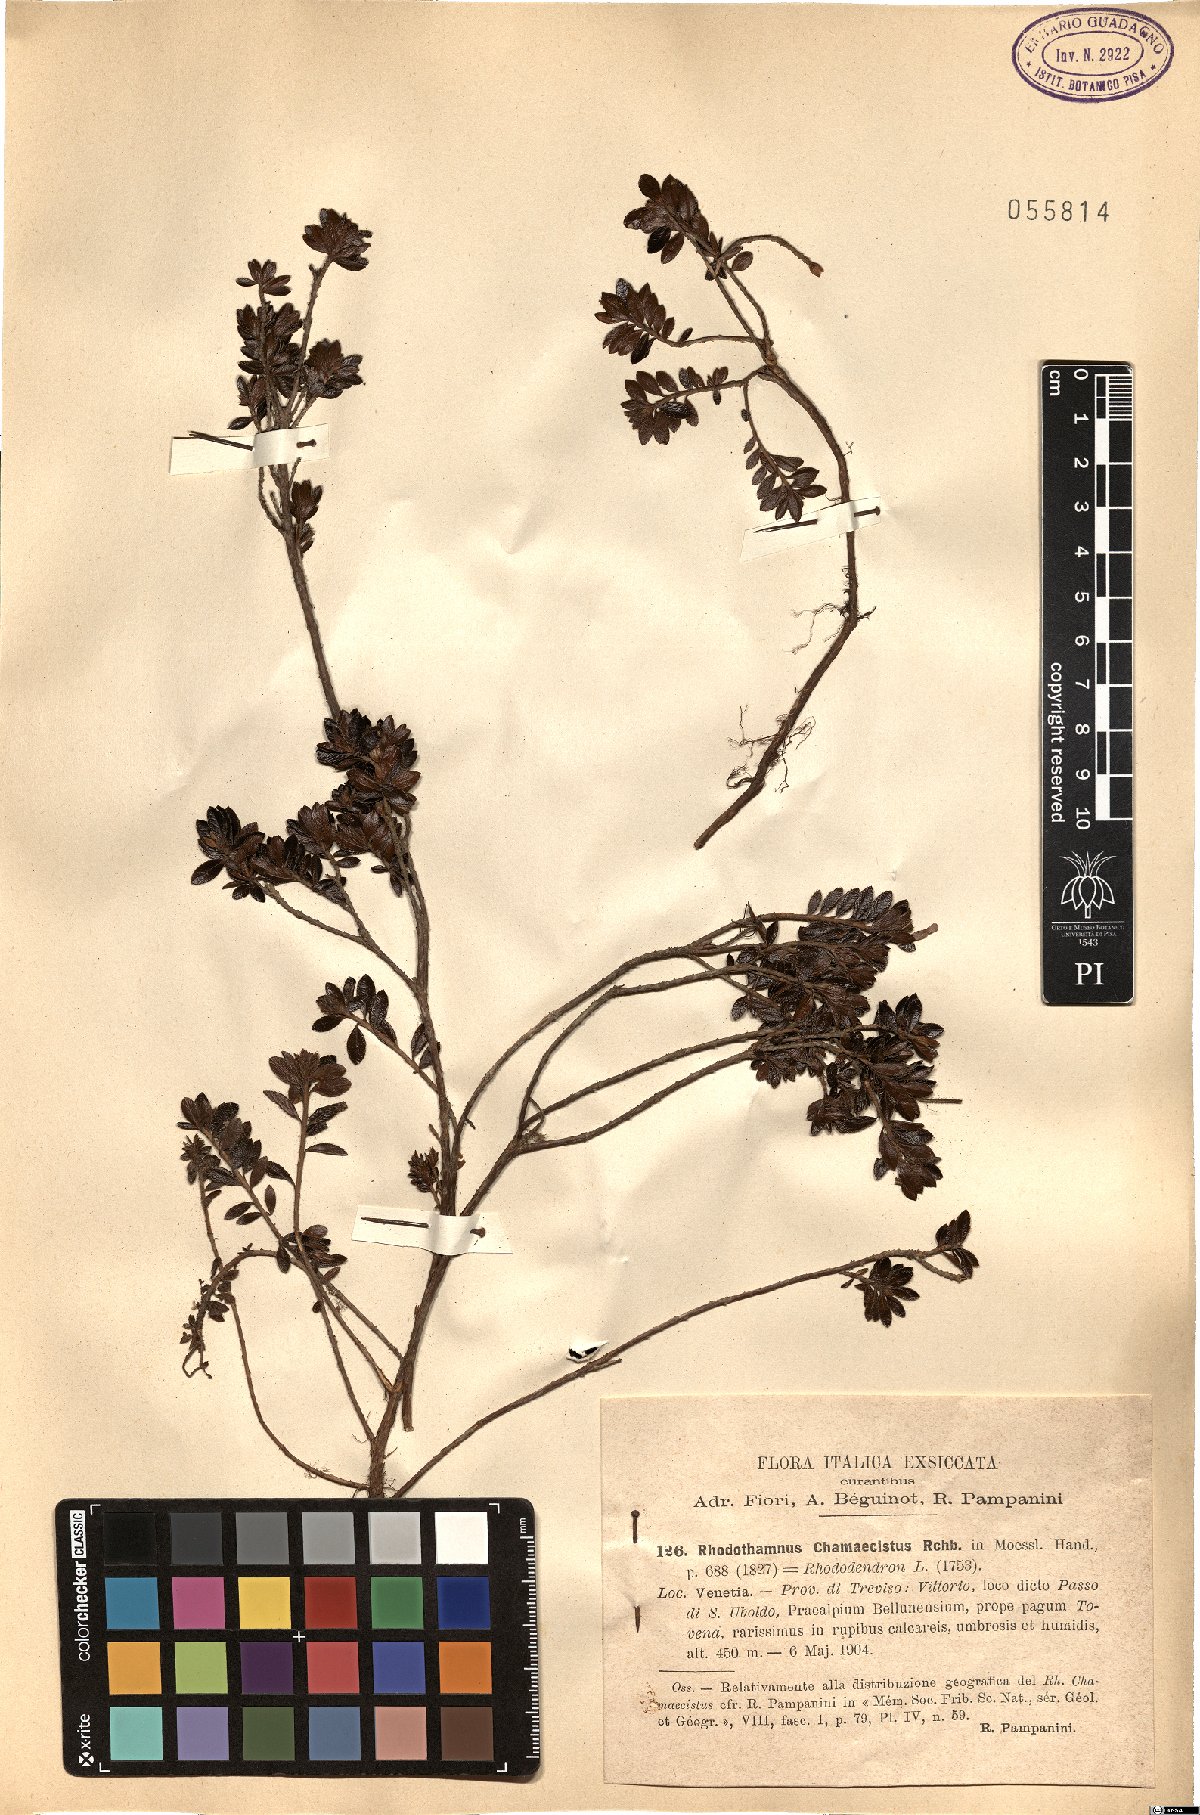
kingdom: Plantae
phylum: Tracheophyta
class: Magnoliopsida
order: Ericales
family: Ericaceae
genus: Rhododendron
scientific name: Rhododendron redowskianum
